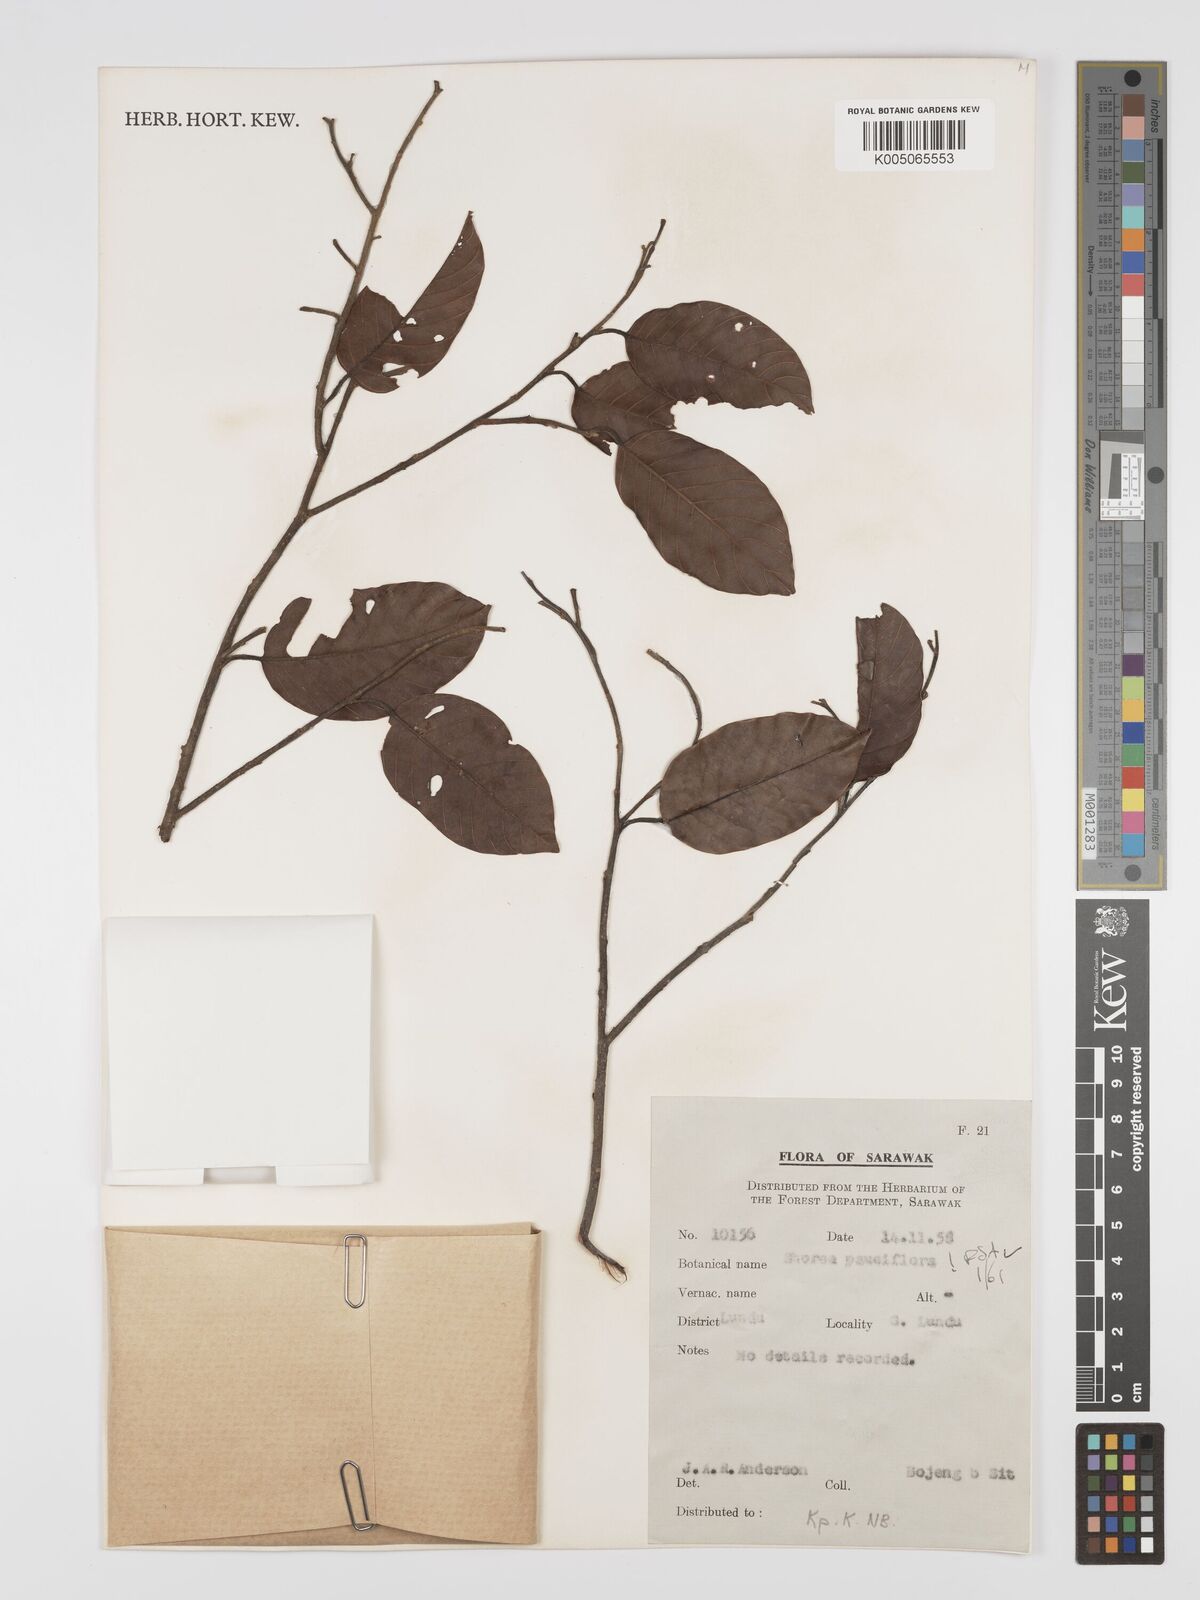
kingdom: Plantae
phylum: Tracheophyta
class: Magnoliopsida
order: Malvales
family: Dipterocarpaceae
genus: Shorea
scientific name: Shorea parvifolia
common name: Light red meranti
